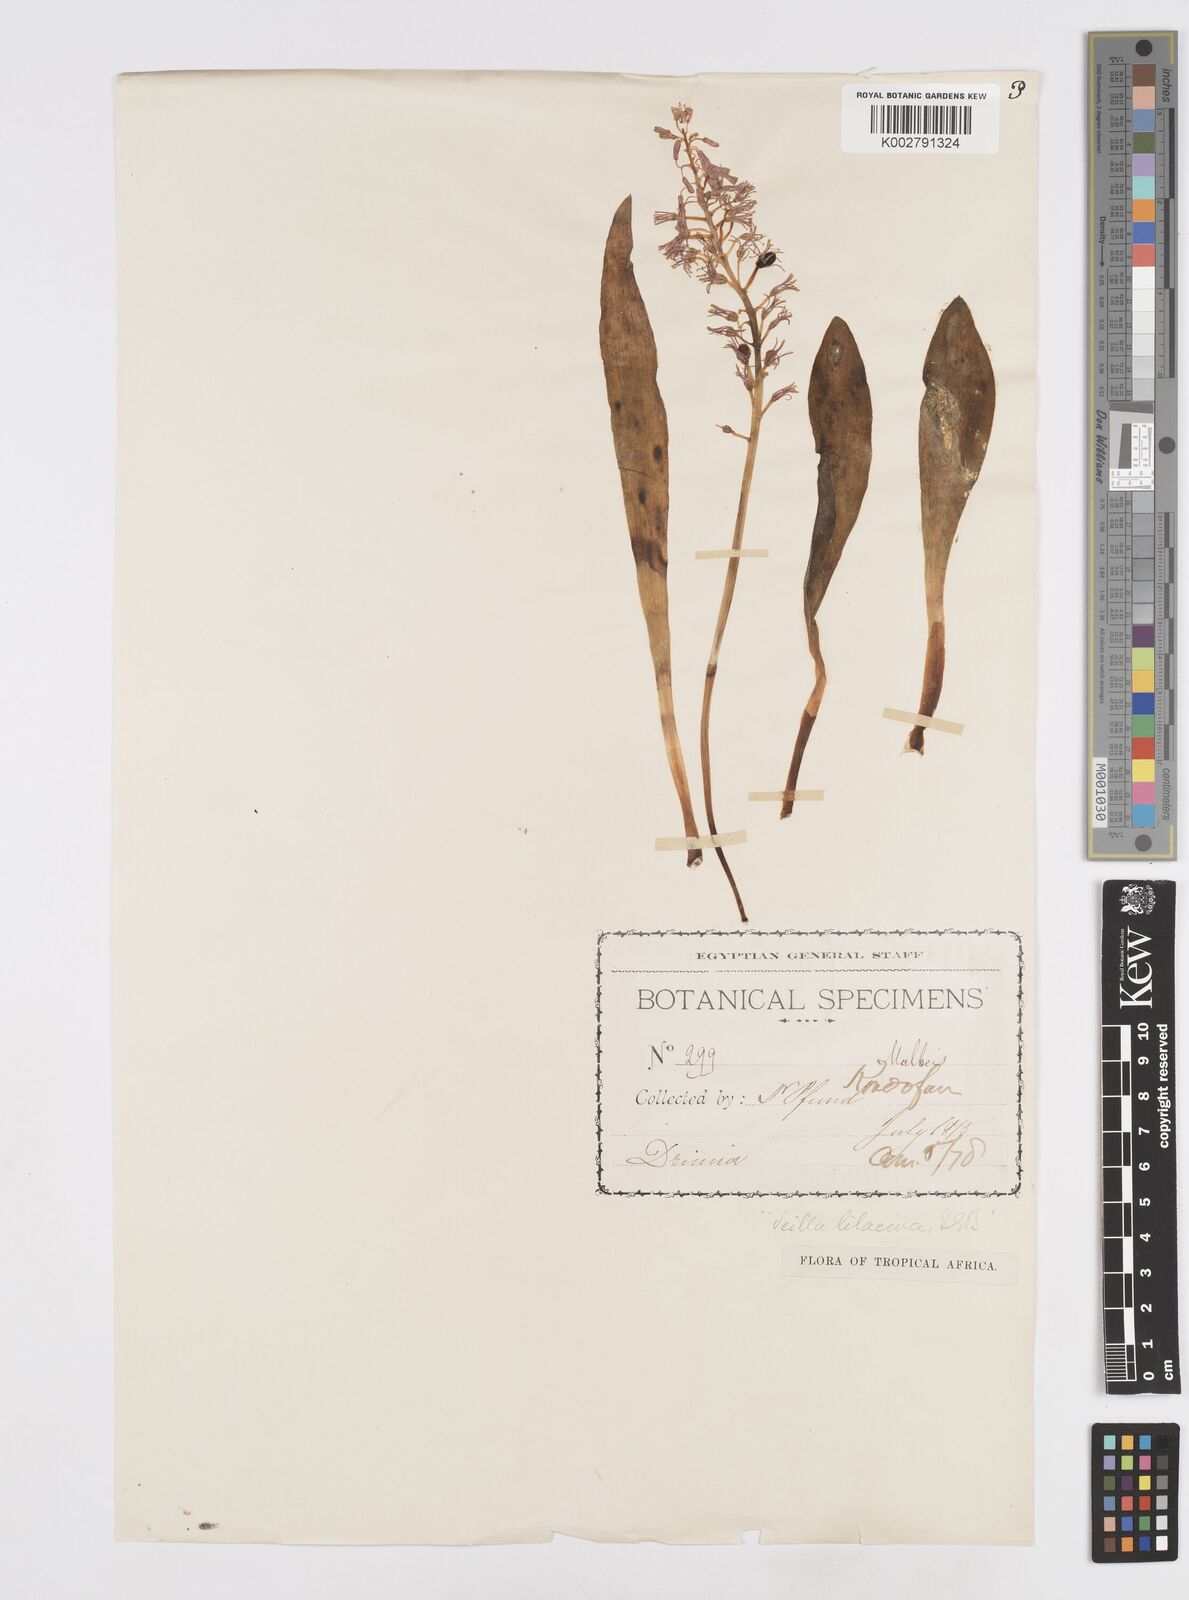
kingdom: Plantae
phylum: Tracheophyta
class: Liliopsida
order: Asparagales
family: Asparagaceae
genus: Ledebouria
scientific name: Ledebouria lilacina
